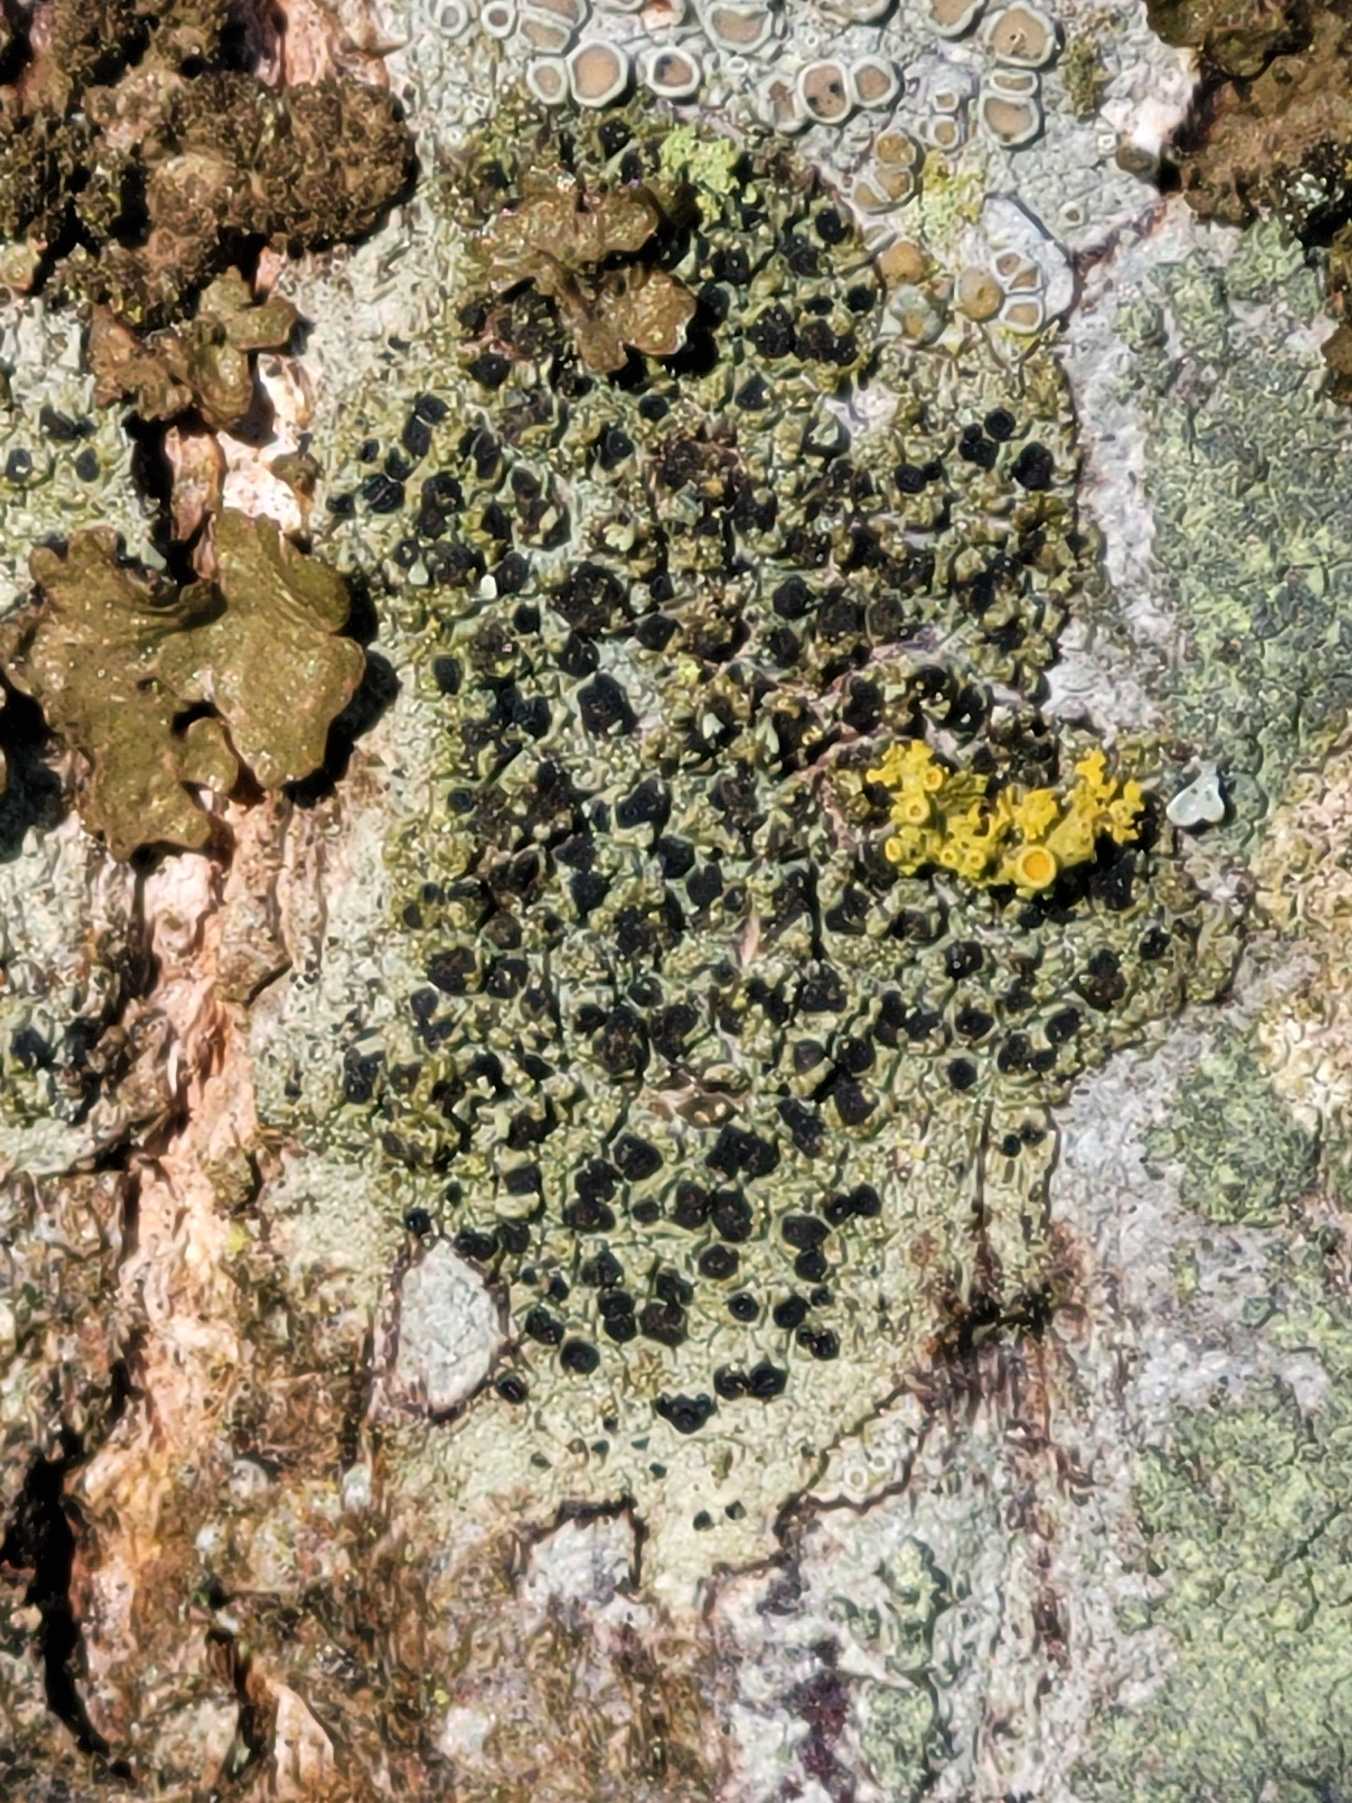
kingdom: Fungi
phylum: Ascomycota
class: Lecanoromycetes
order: Lecanorales
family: Lecanoraceae
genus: Lecidella
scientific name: Lecidella elaeochroma
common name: Grågrøn skivelav
